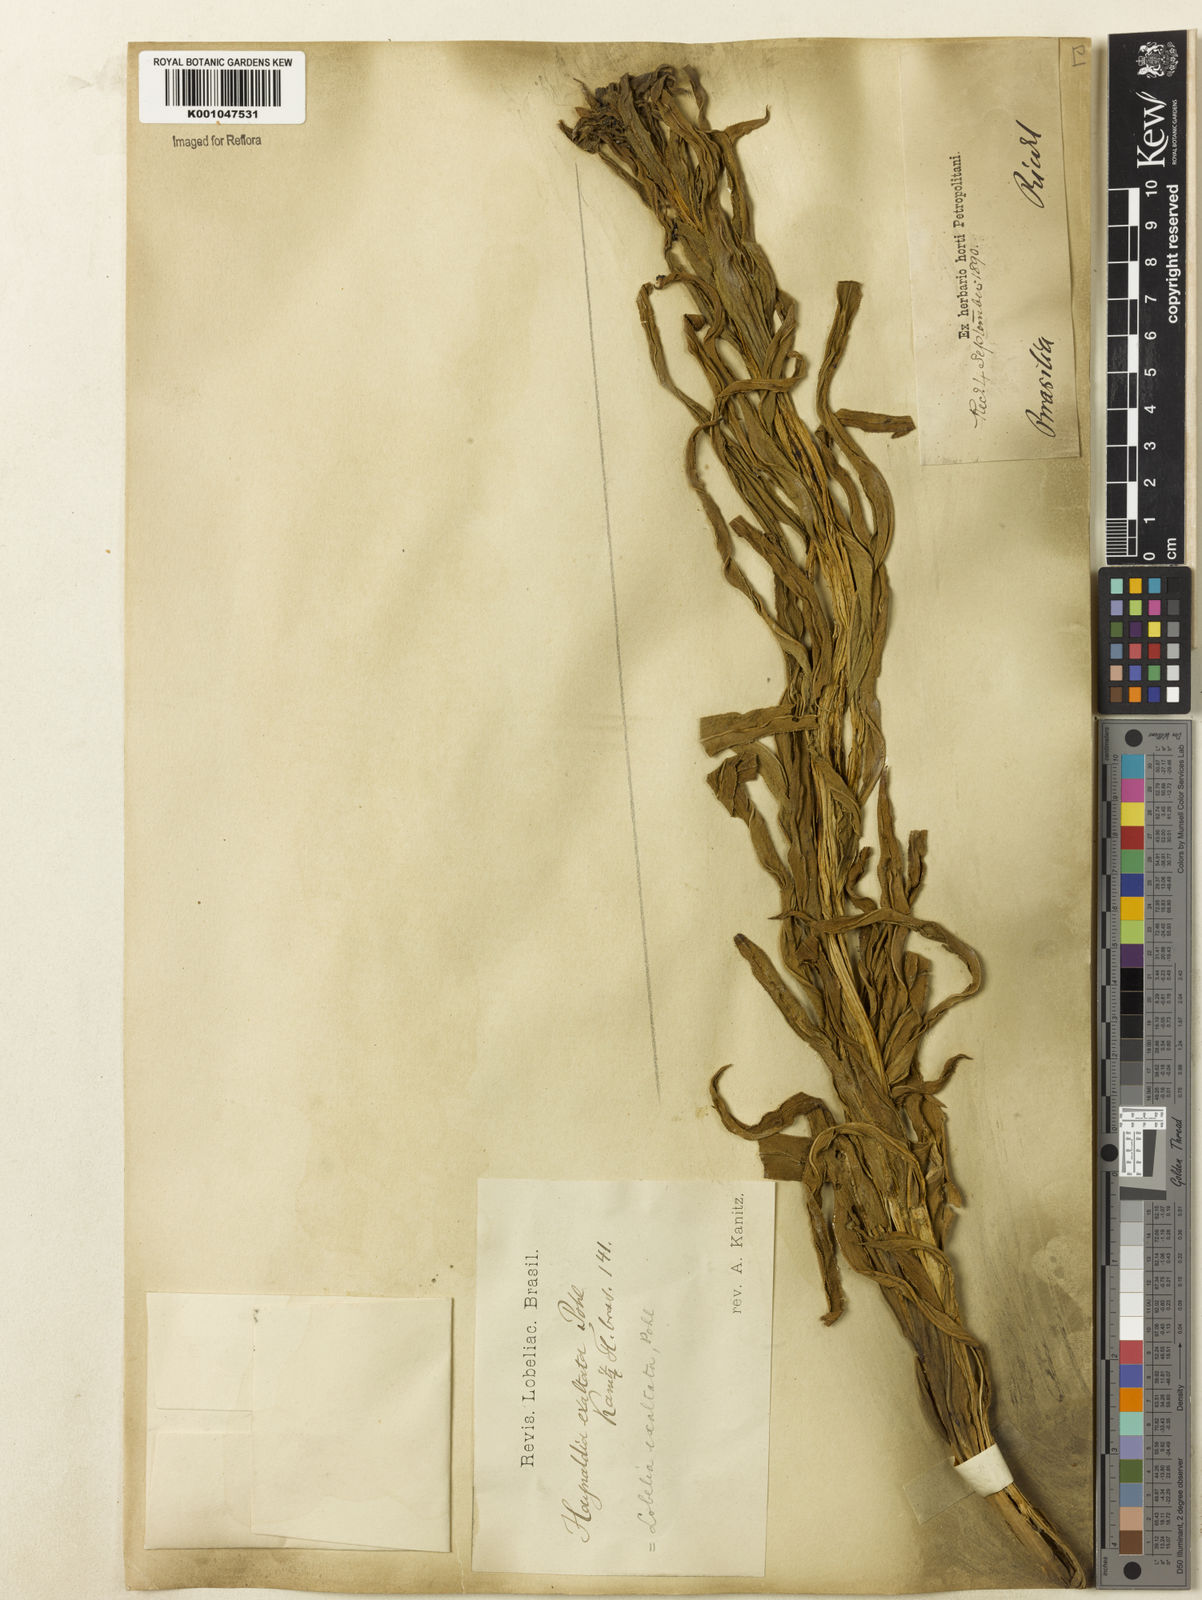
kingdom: Plantae
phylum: Tracheophyta
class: Magnoliopsida
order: Asterales
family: Campanulaceae
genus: Lobelia
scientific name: Lobelia exaltata
